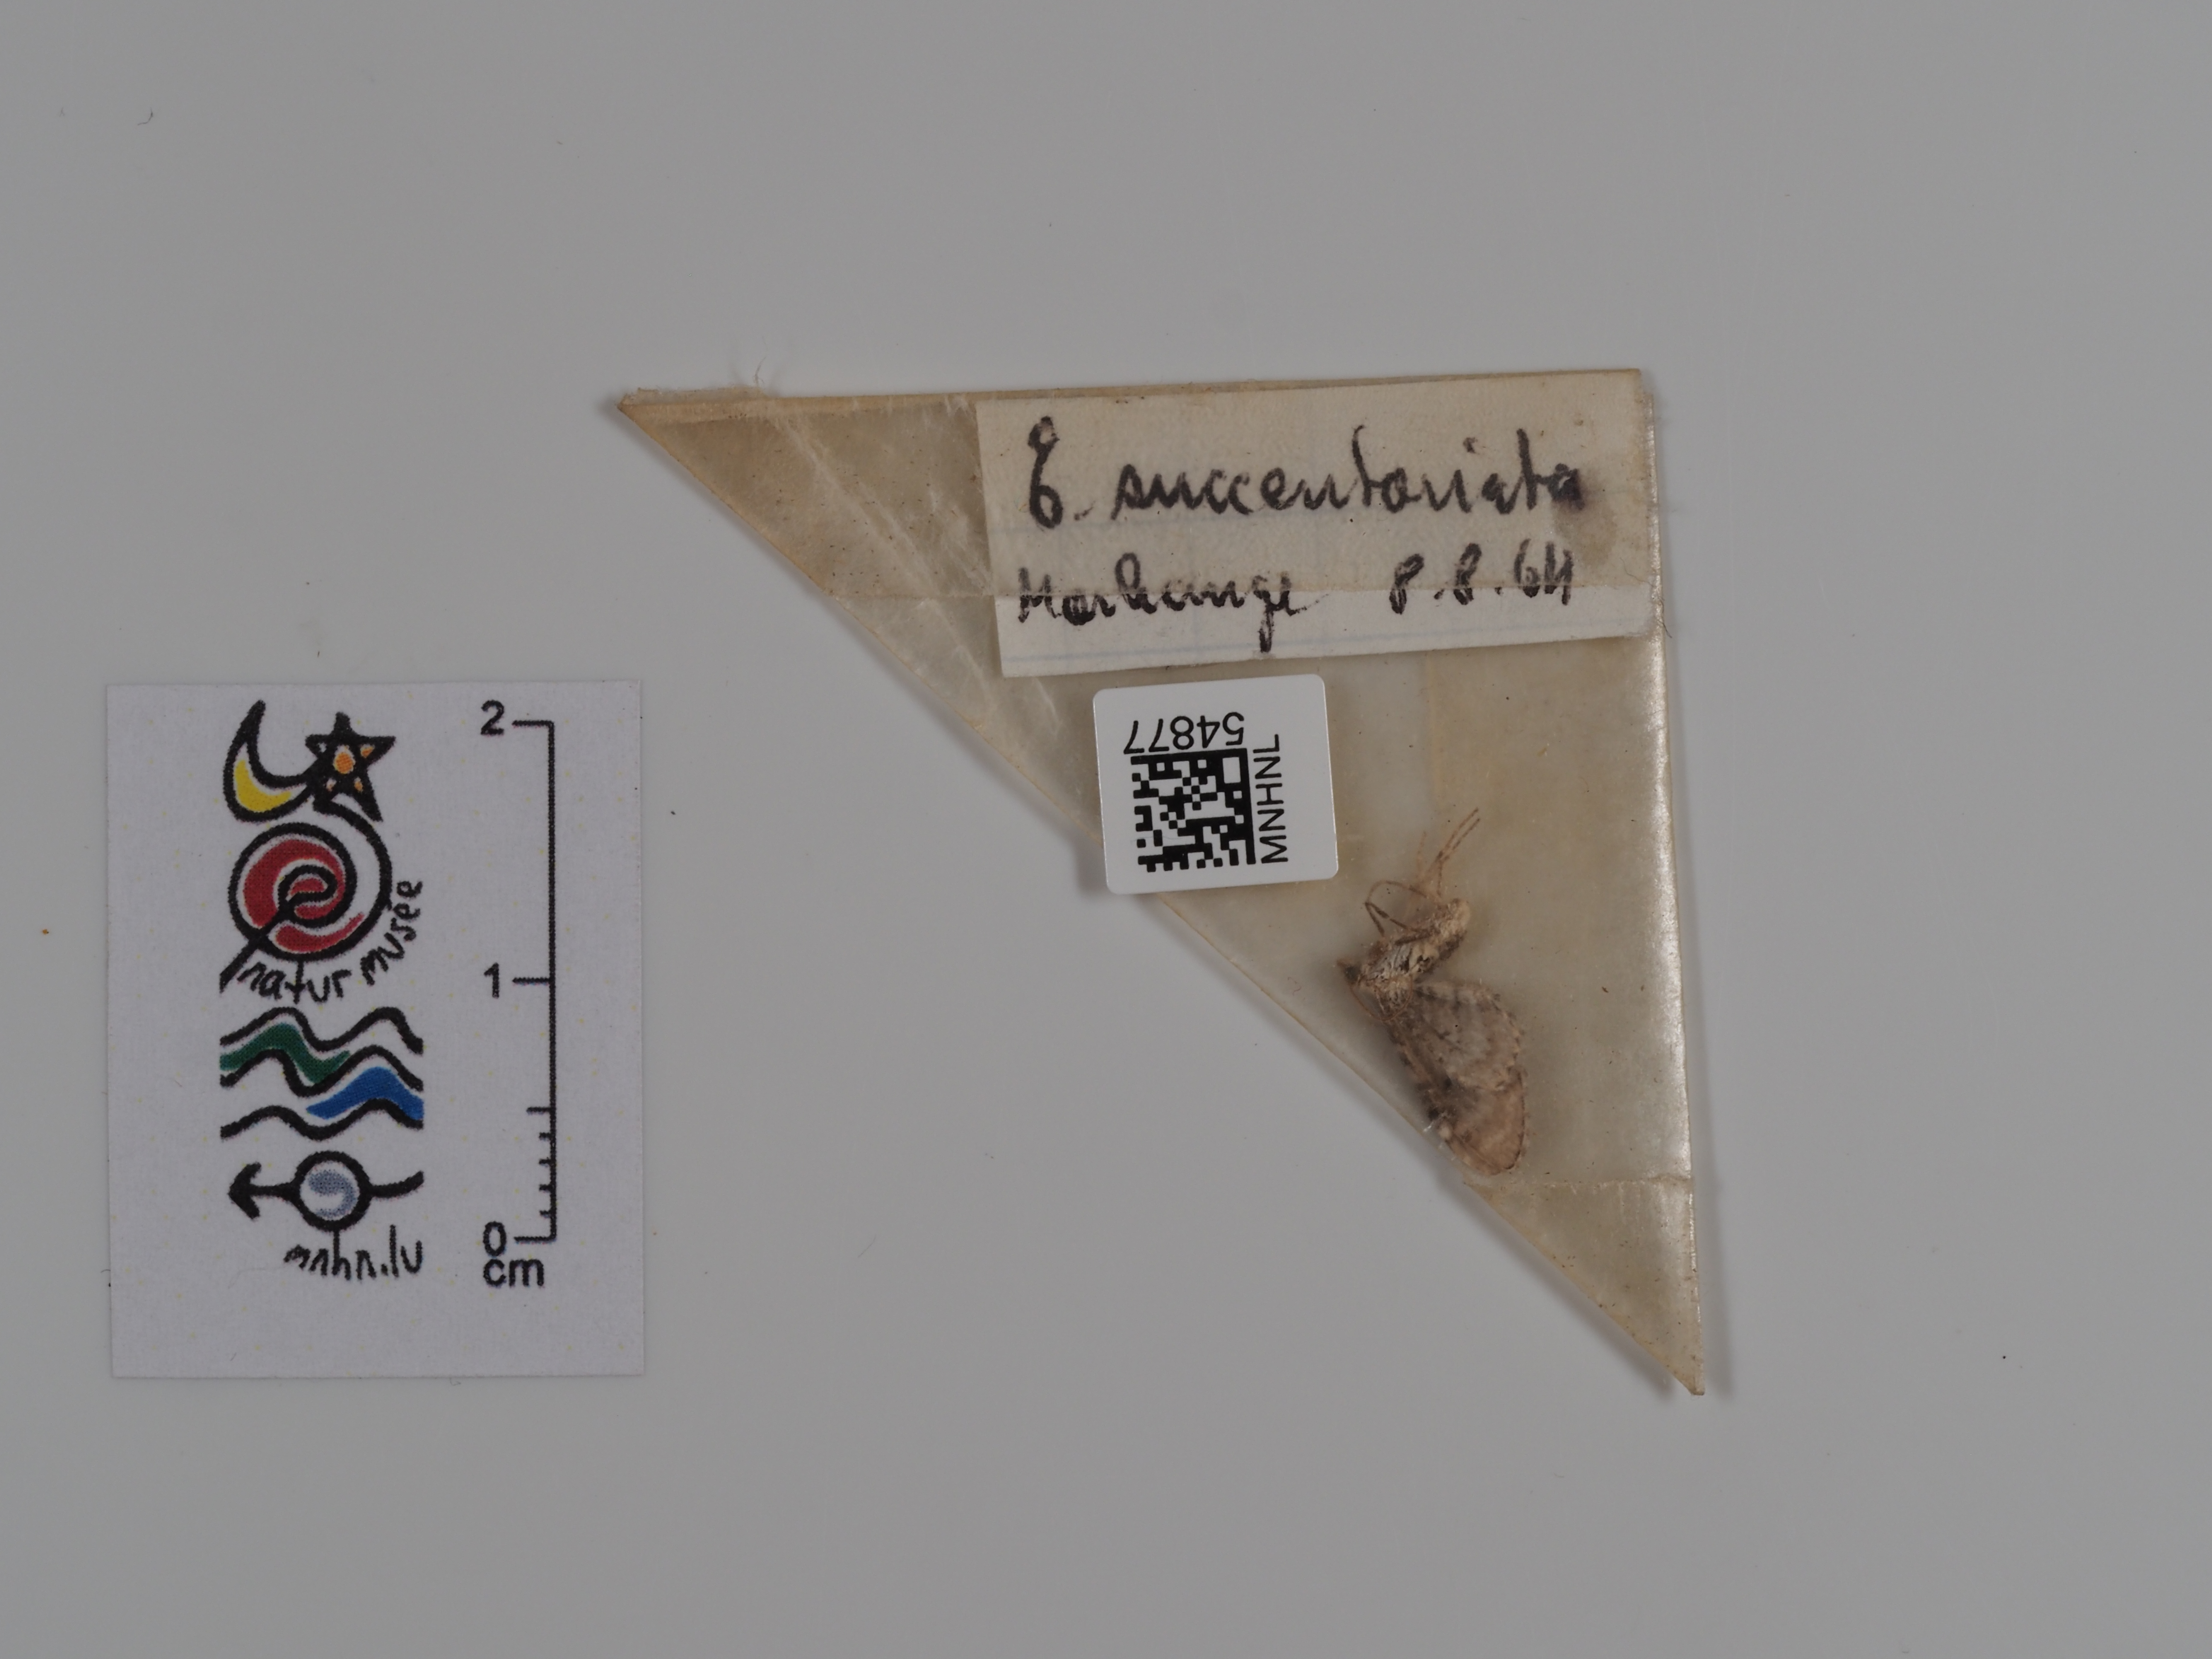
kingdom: Animalia
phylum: Arthropoda
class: Insecta
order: Lepidoptera
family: Geometridae
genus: Eupithecia
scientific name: Eupithecia succenturiata
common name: Bordered pug
